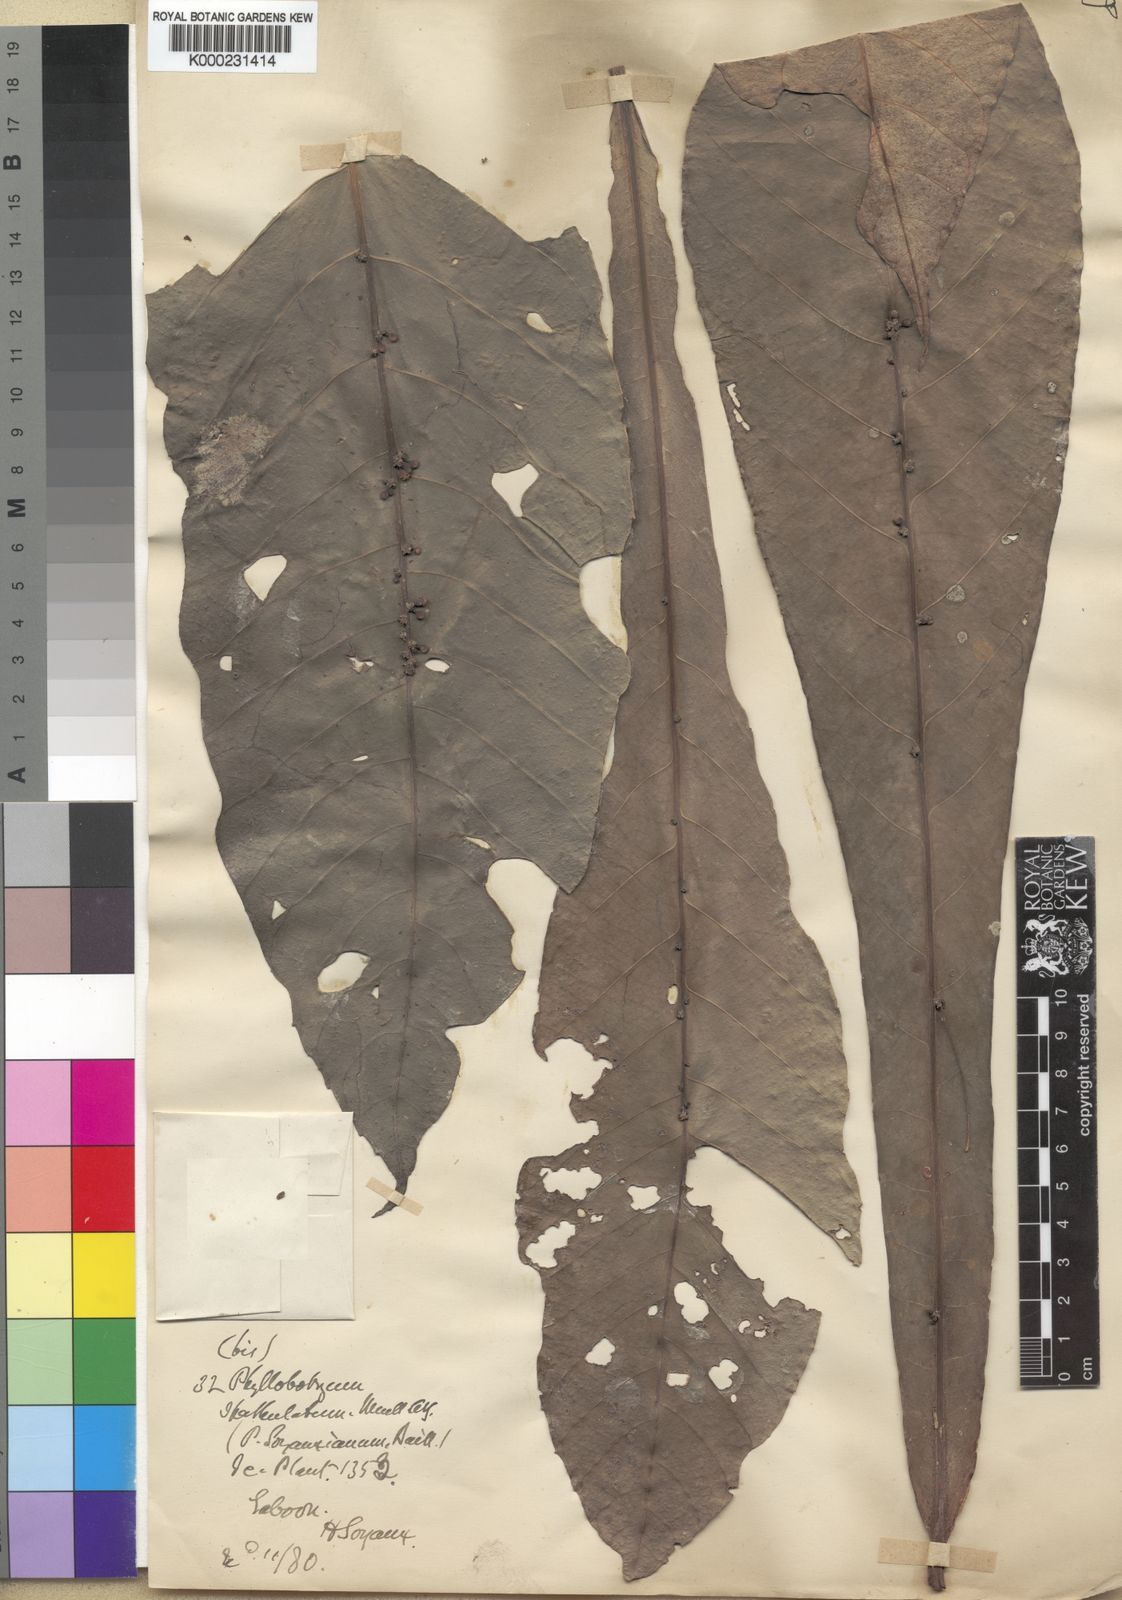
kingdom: Plantae
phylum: Tracheophyta
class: Magnoliopsida
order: Malpighiales
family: Salicaceae
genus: Phyllobotryon
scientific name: Phyllobotryon
